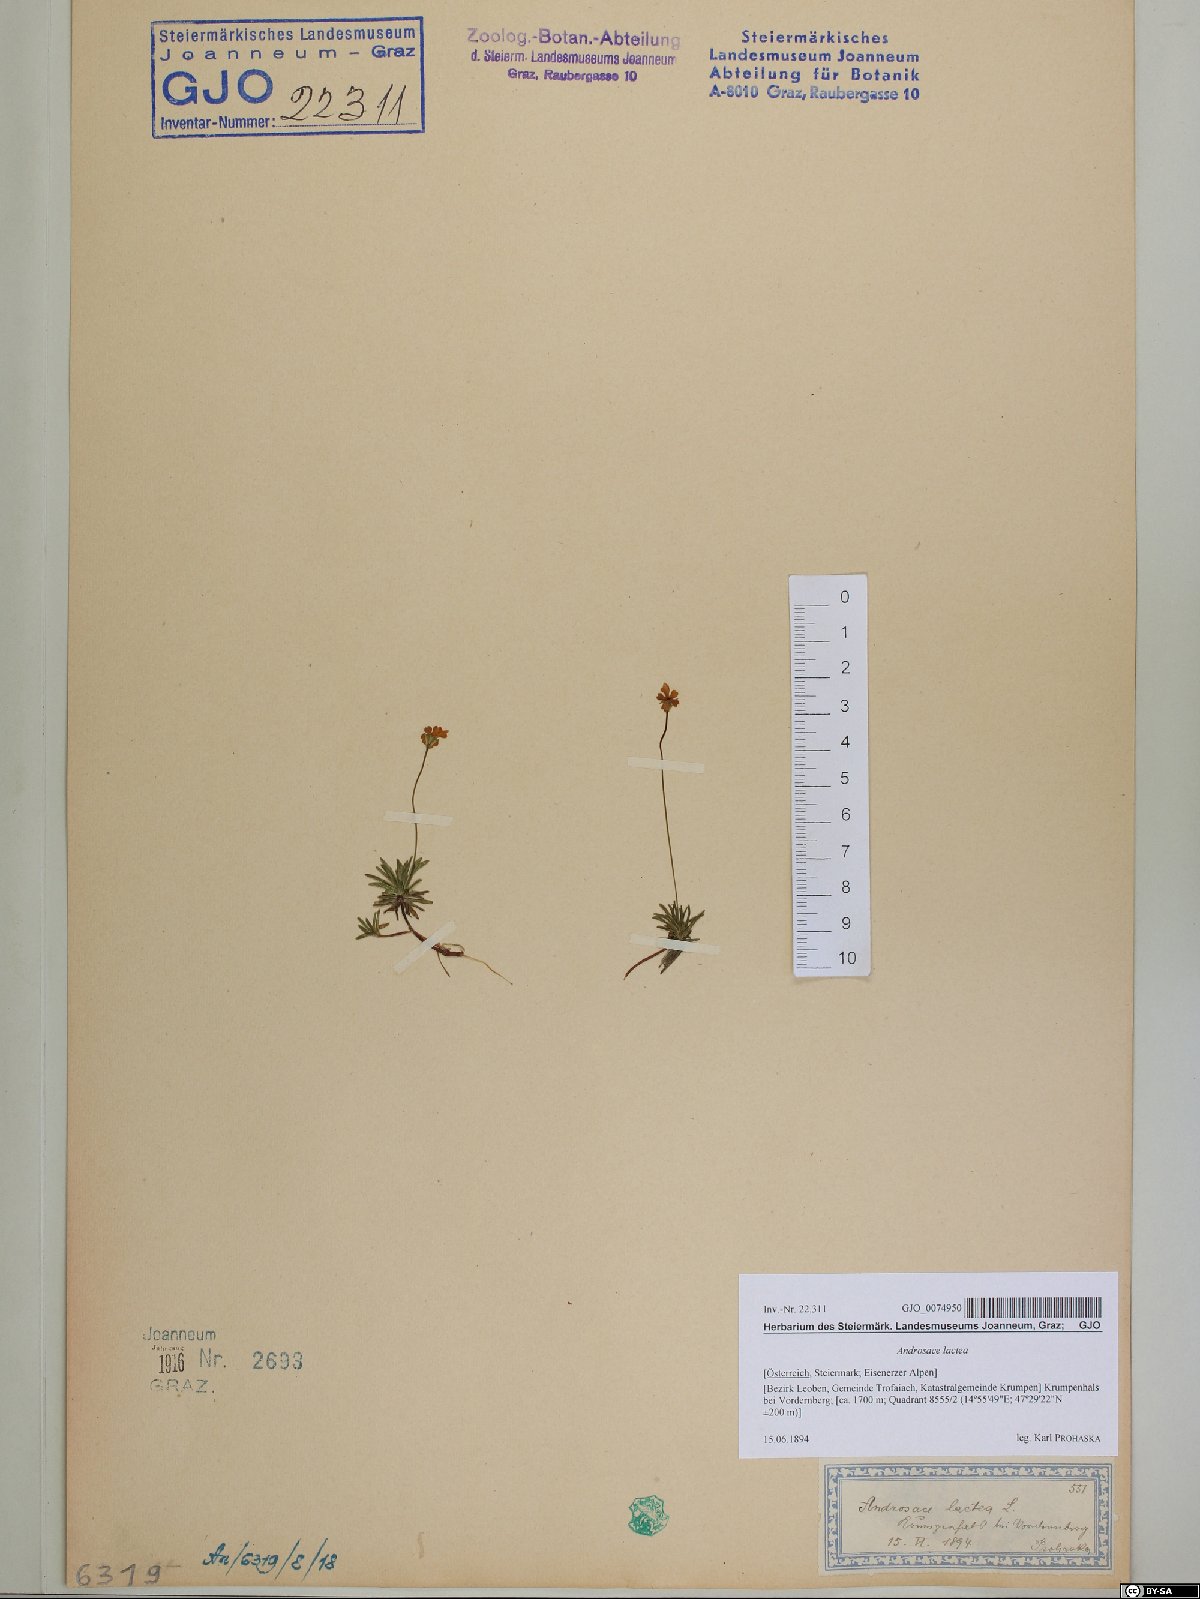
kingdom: Plantae
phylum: Tracheophyta
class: Magnoliopsida
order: Ericales
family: Primulaceae
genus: Androsace
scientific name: Androsace lactea
